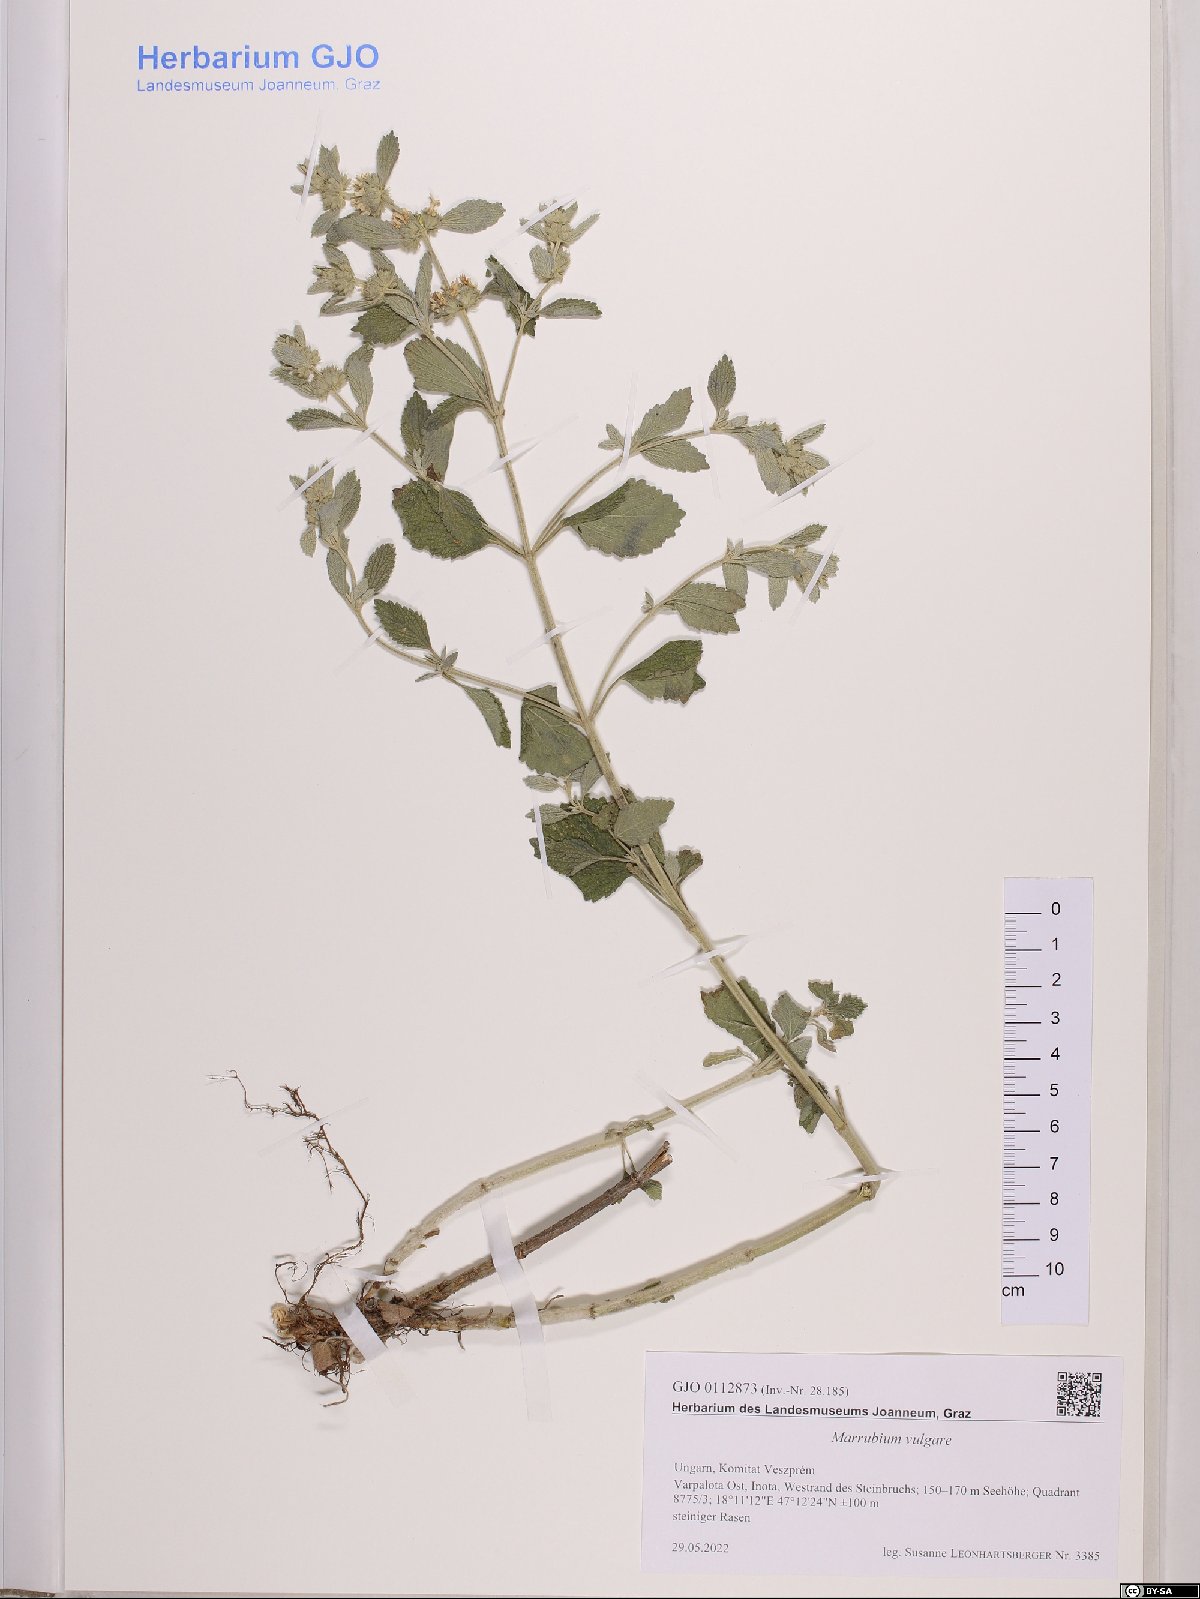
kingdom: Plantae
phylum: Tracheophyta
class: Magnoliopsida
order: Lamiales
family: Lamiaceae
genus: Marrubium
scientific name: Marrubium vulgare
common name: Horehound
